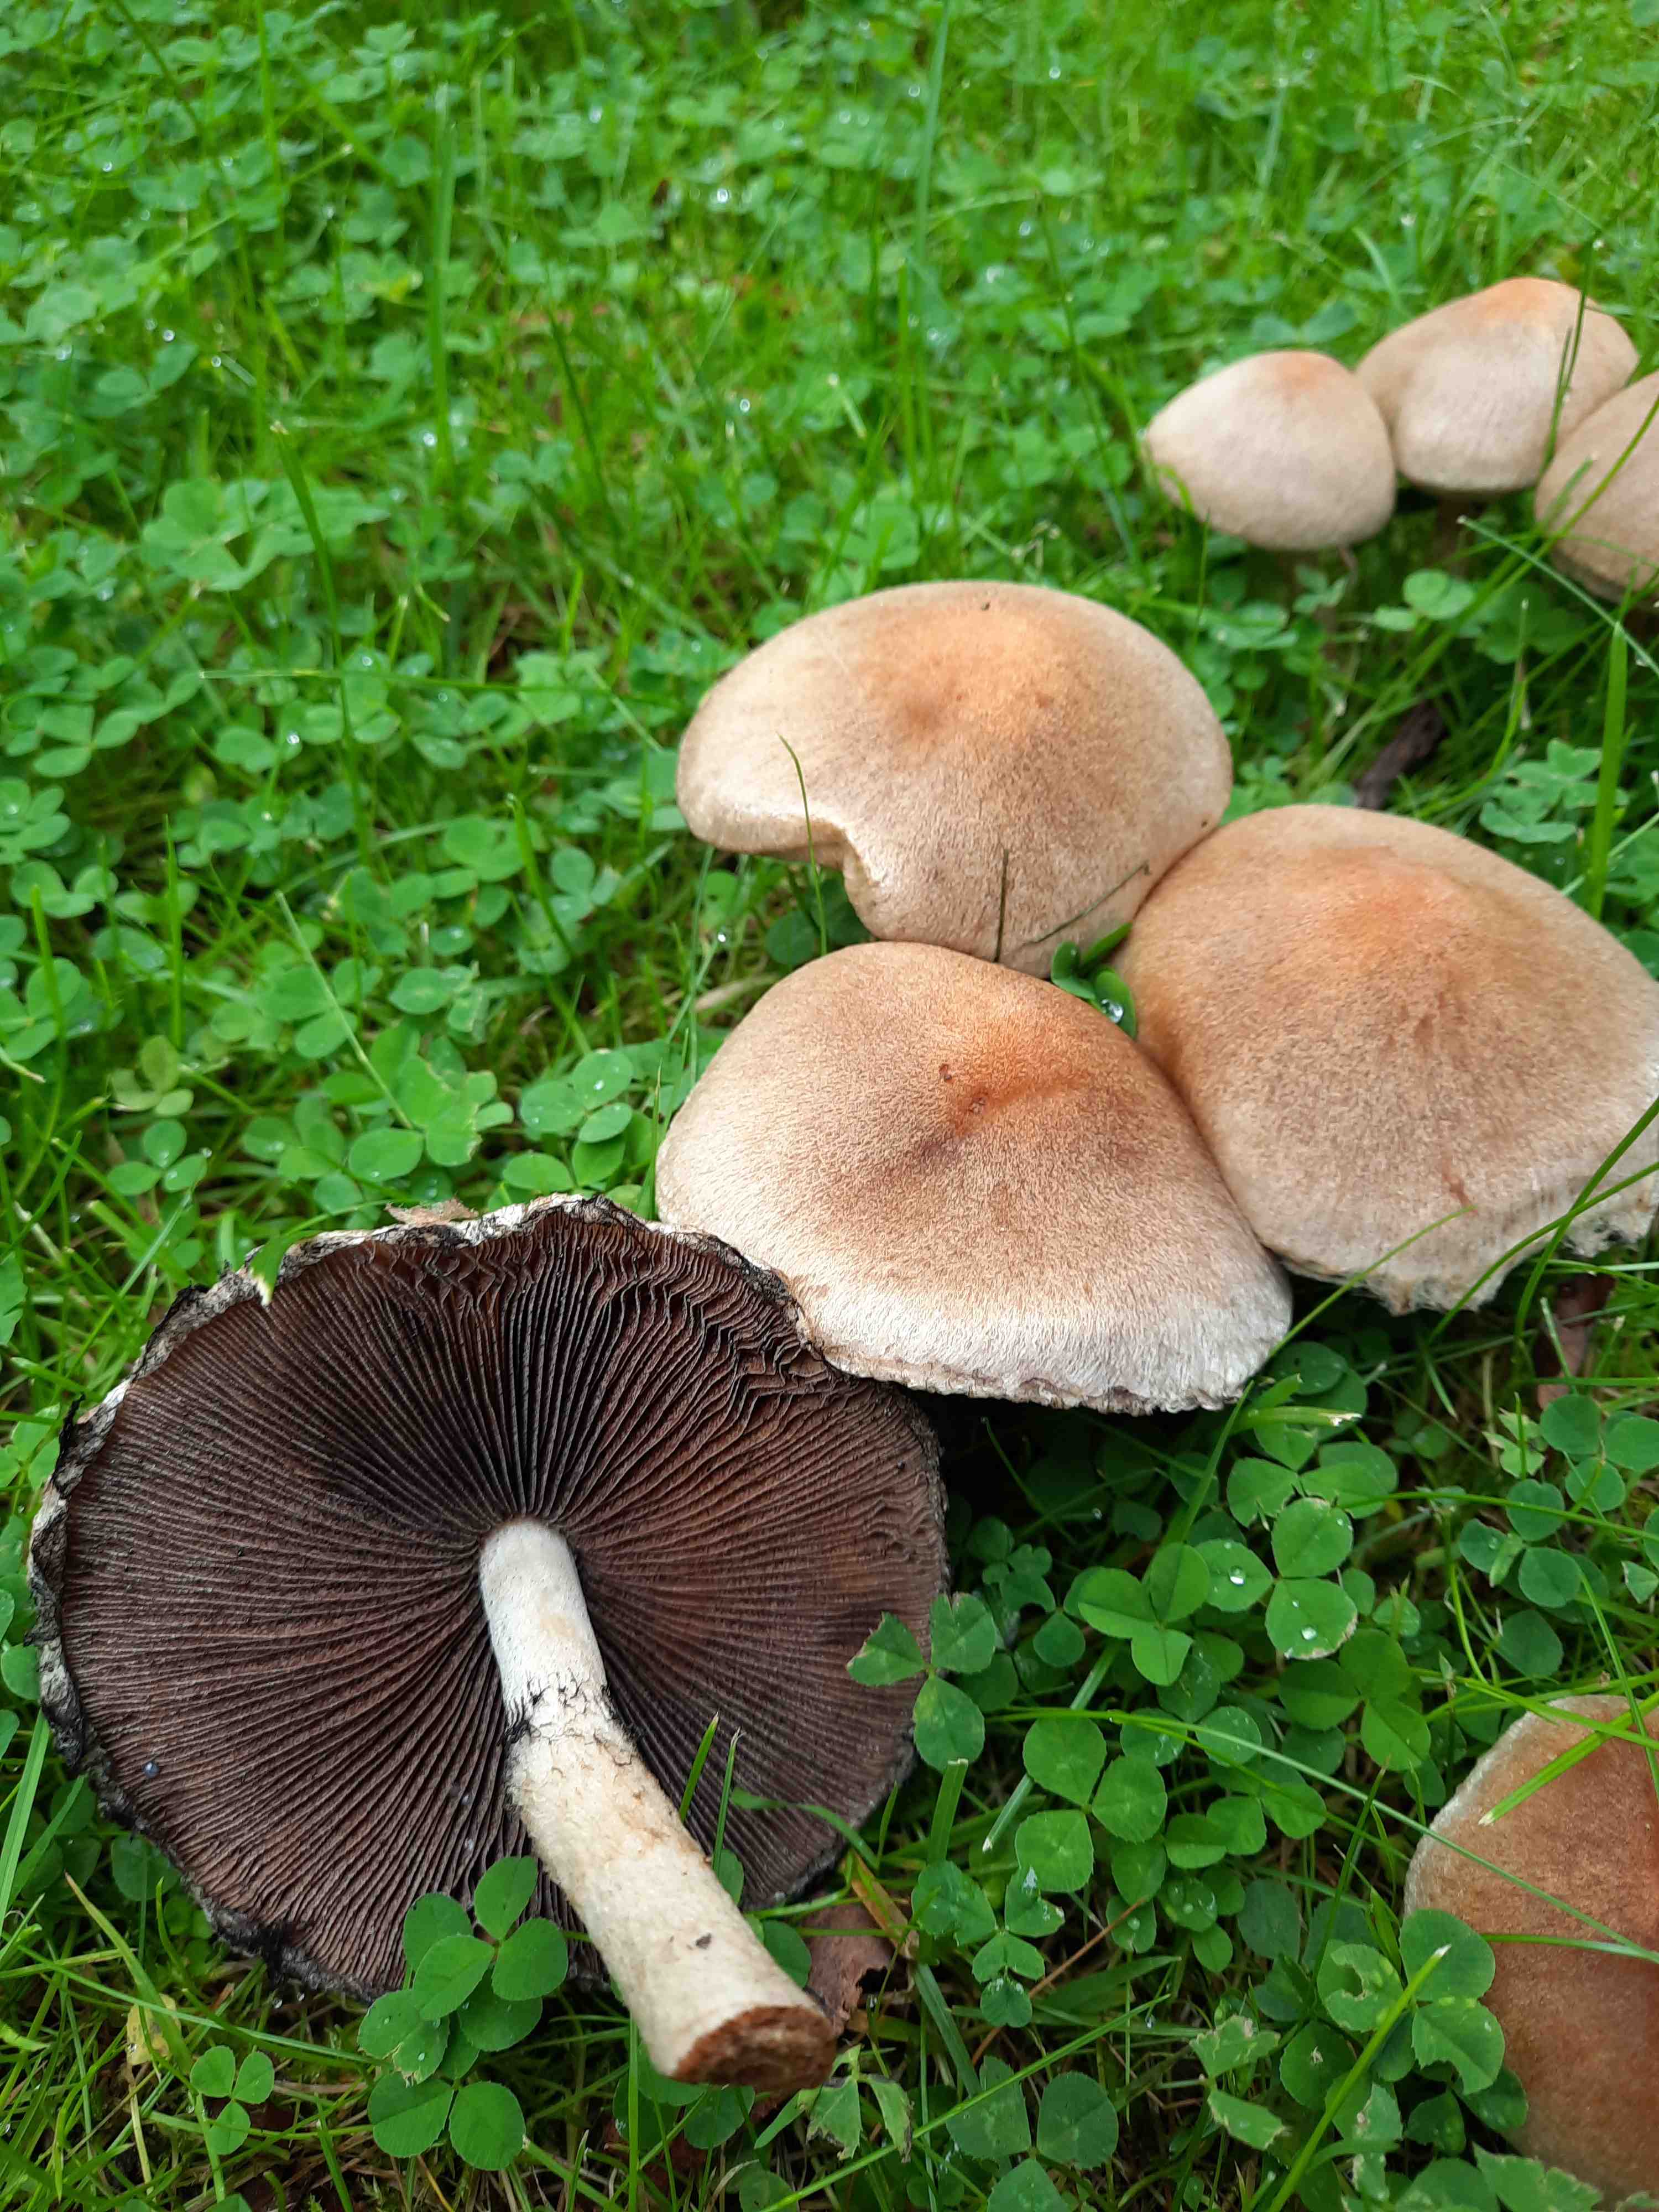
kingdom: Fungi
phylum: Basidiomycota
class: Agaricomycetes
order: Agaricales
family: Psathyrellaceae
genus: Lacrymaria
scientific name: Lacrymaria lacrymabunda
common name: grædende mørkhat
